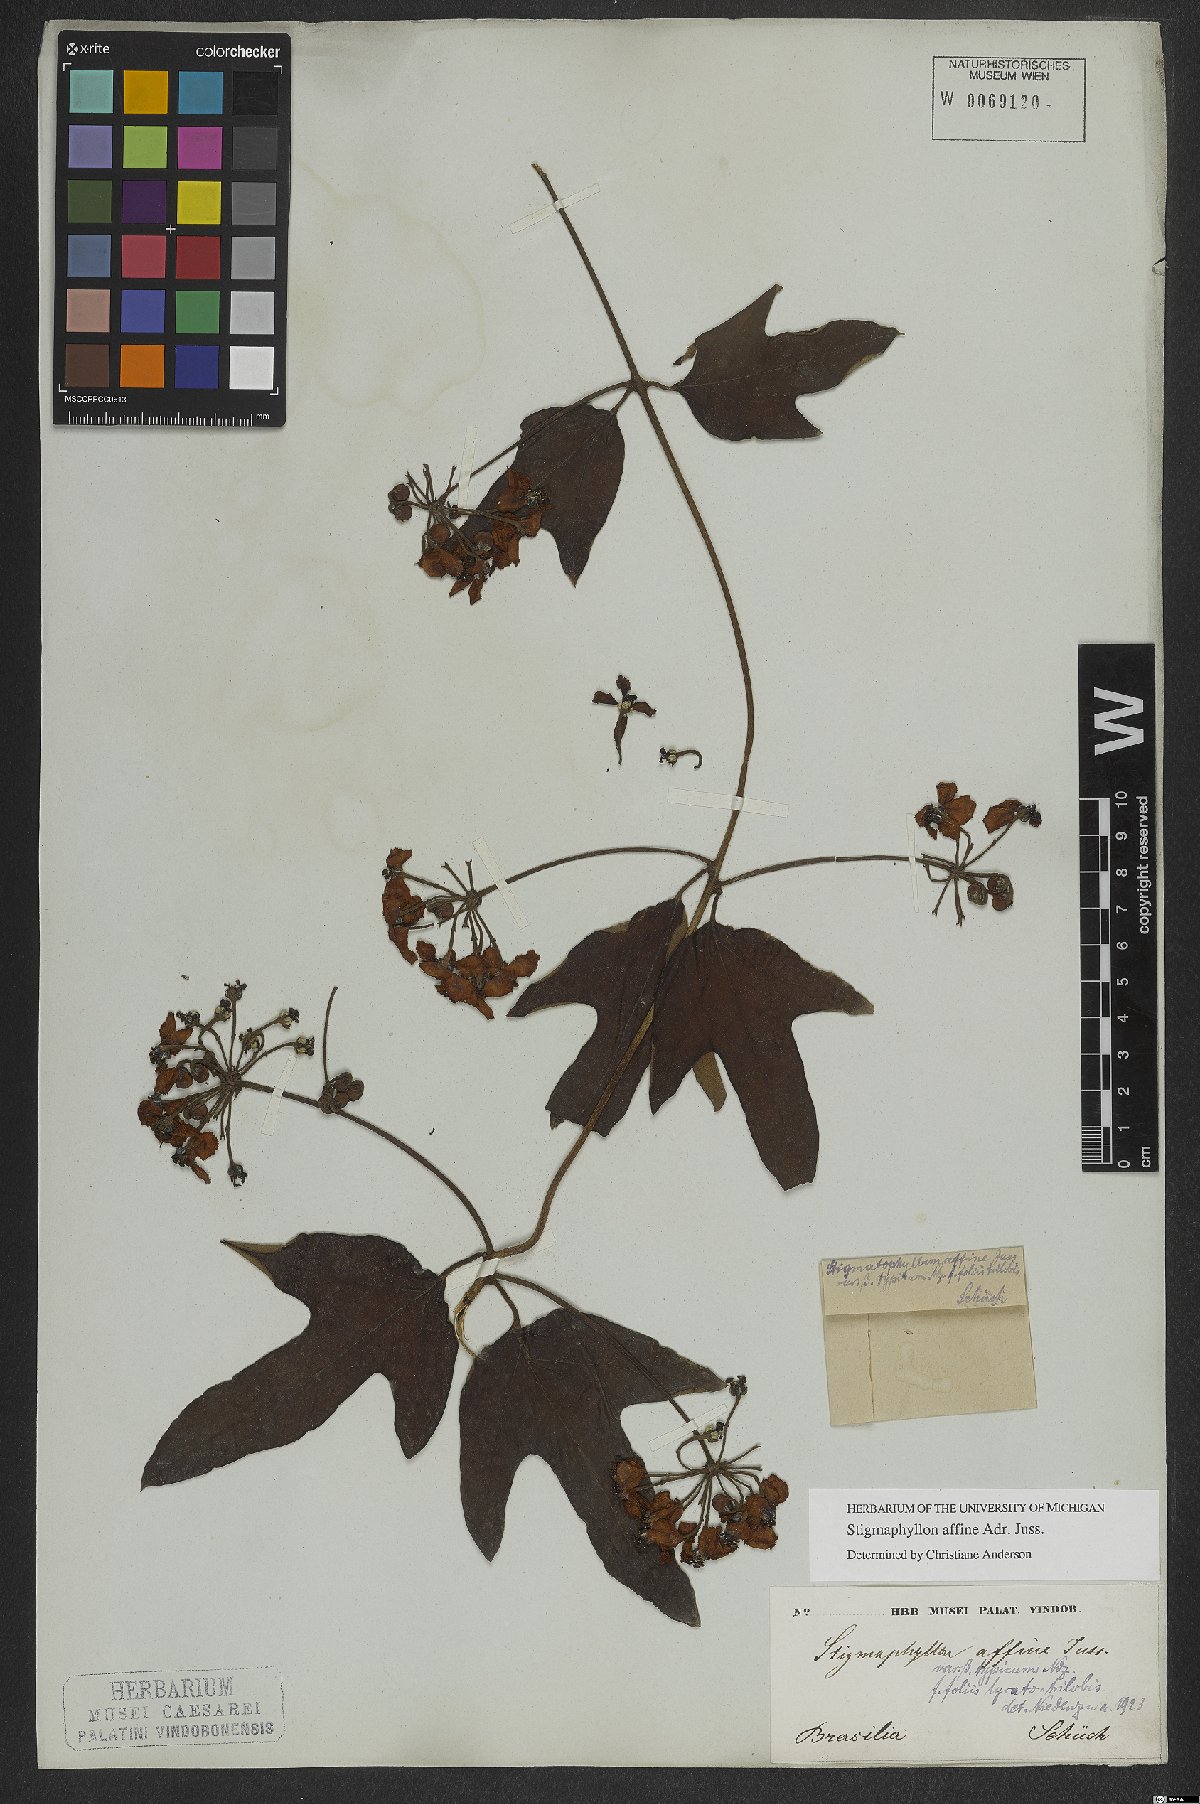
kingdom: Plantae
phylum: Tracheophyta
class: Magnoliopsida
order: Malpighiales
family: Malpighiaceae
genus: Stigmaphyllon
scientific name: Stigmaphyllon affine
